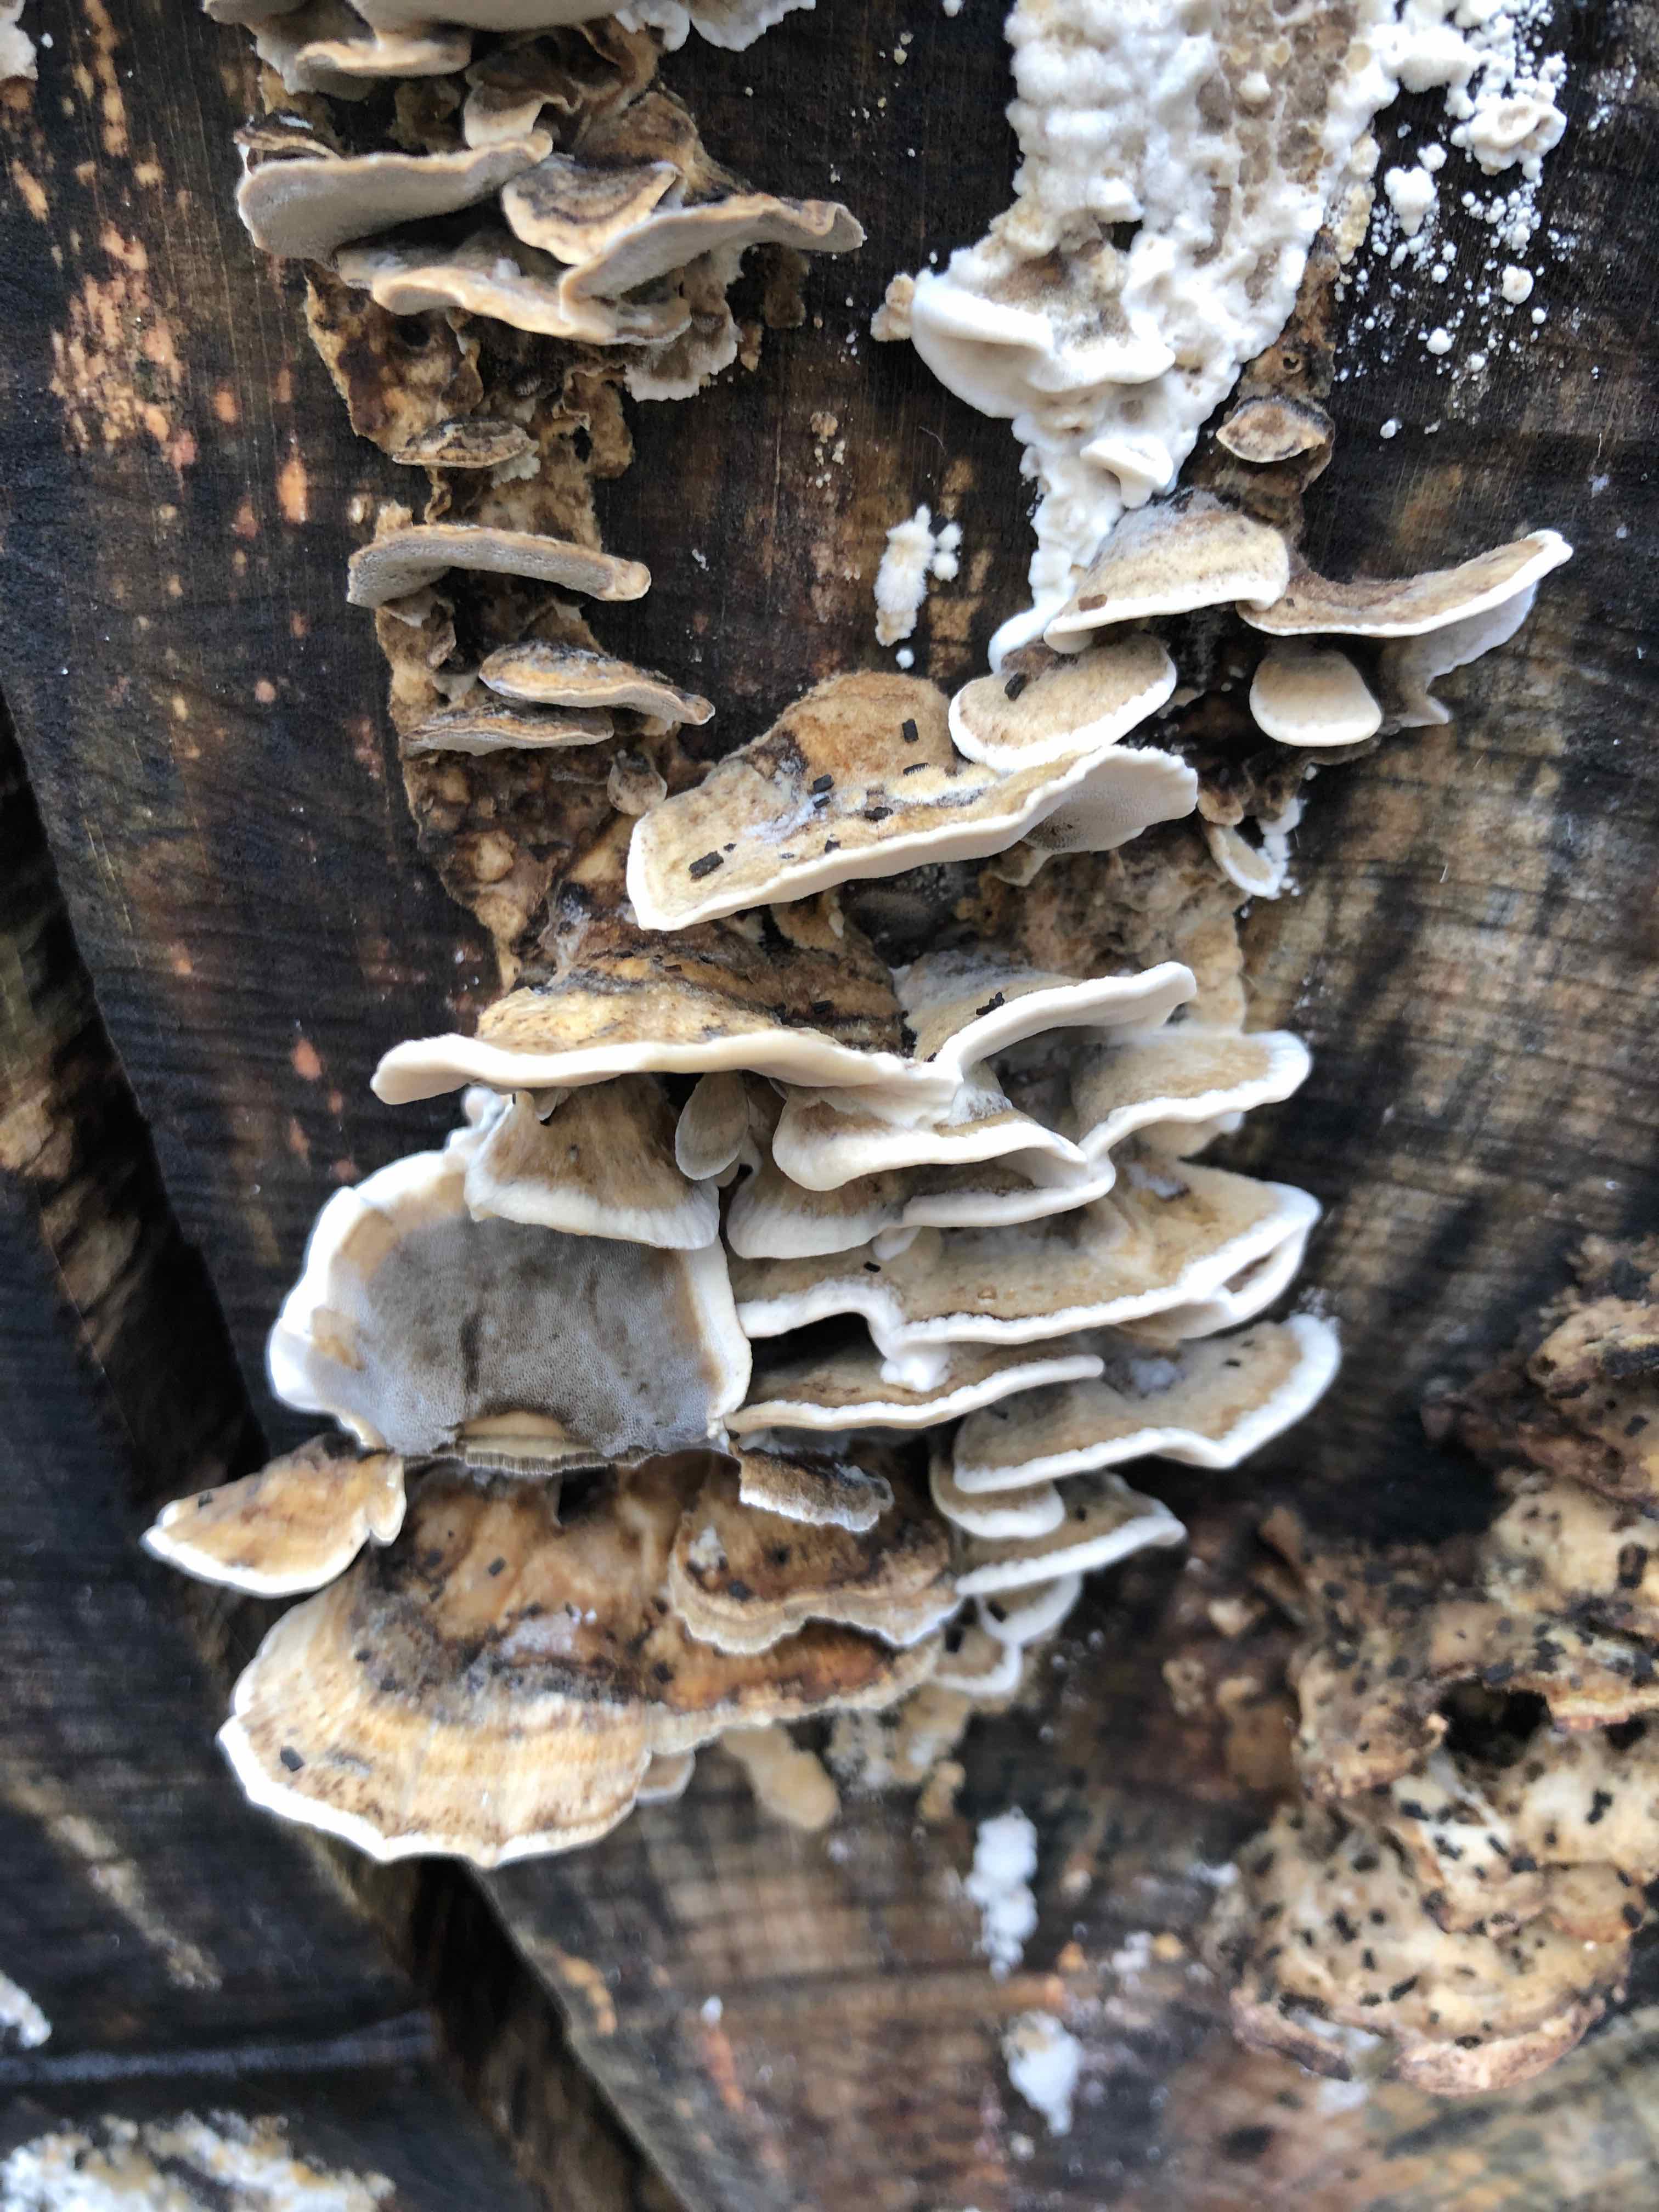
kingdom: Fungi
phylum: Basidiomycota
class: Agaricomycetes
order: Polyporales
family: Phanerochaetaceae
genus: Bjerkandera
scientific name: Bjerkandera adusta
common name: sveden sodporesvamp
